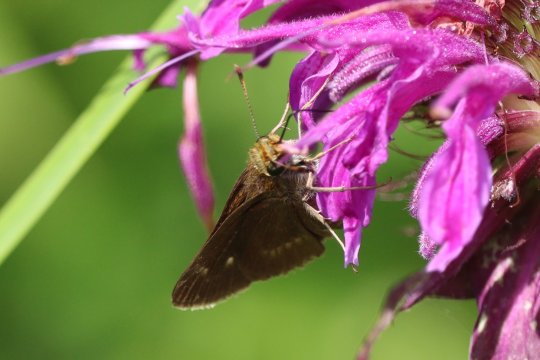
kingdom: Animalia
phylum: Arthropoda
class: Insecta
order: Lepidoptera
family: Hesperiidae
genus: Polites
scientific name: Polites egeremet
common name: Northern Broken-Dash
